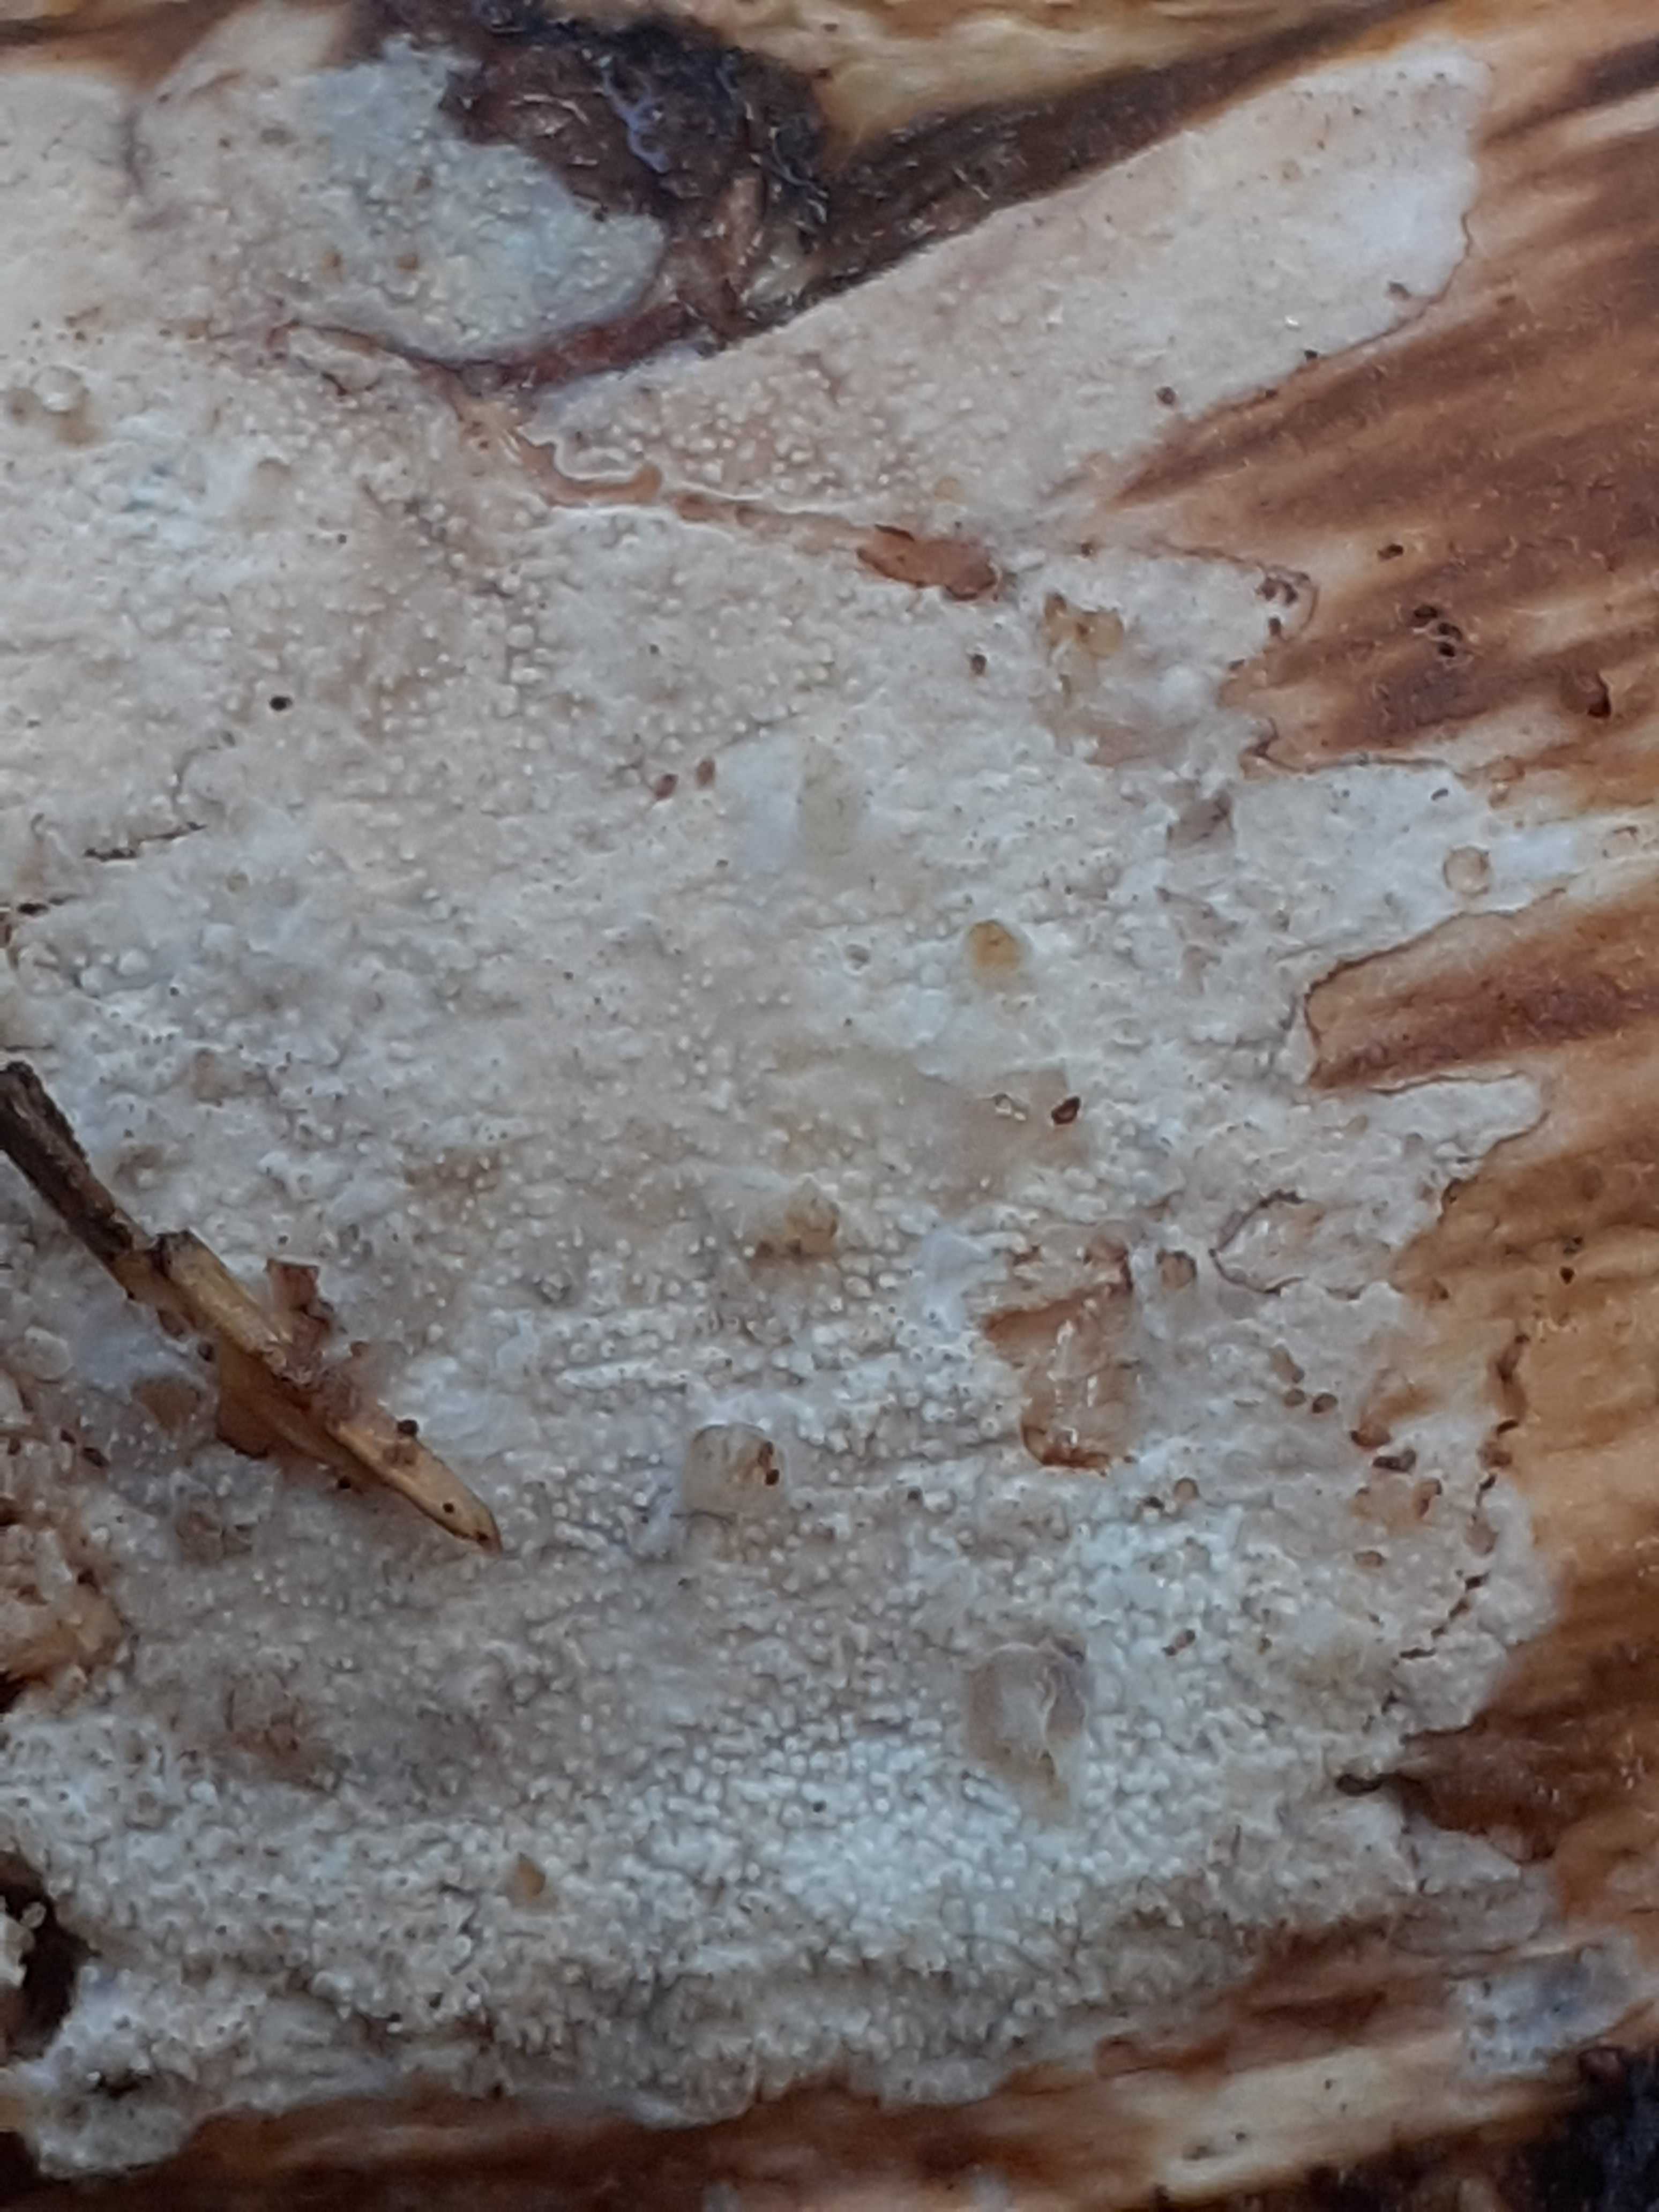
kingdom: Fungi
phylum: Basidiomycota
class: Agaricomycetes
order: Hymenochaetales
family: Rickenellaceae
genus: Resinicium
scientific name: Resinicium bicolor
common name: almindelig vokstand
